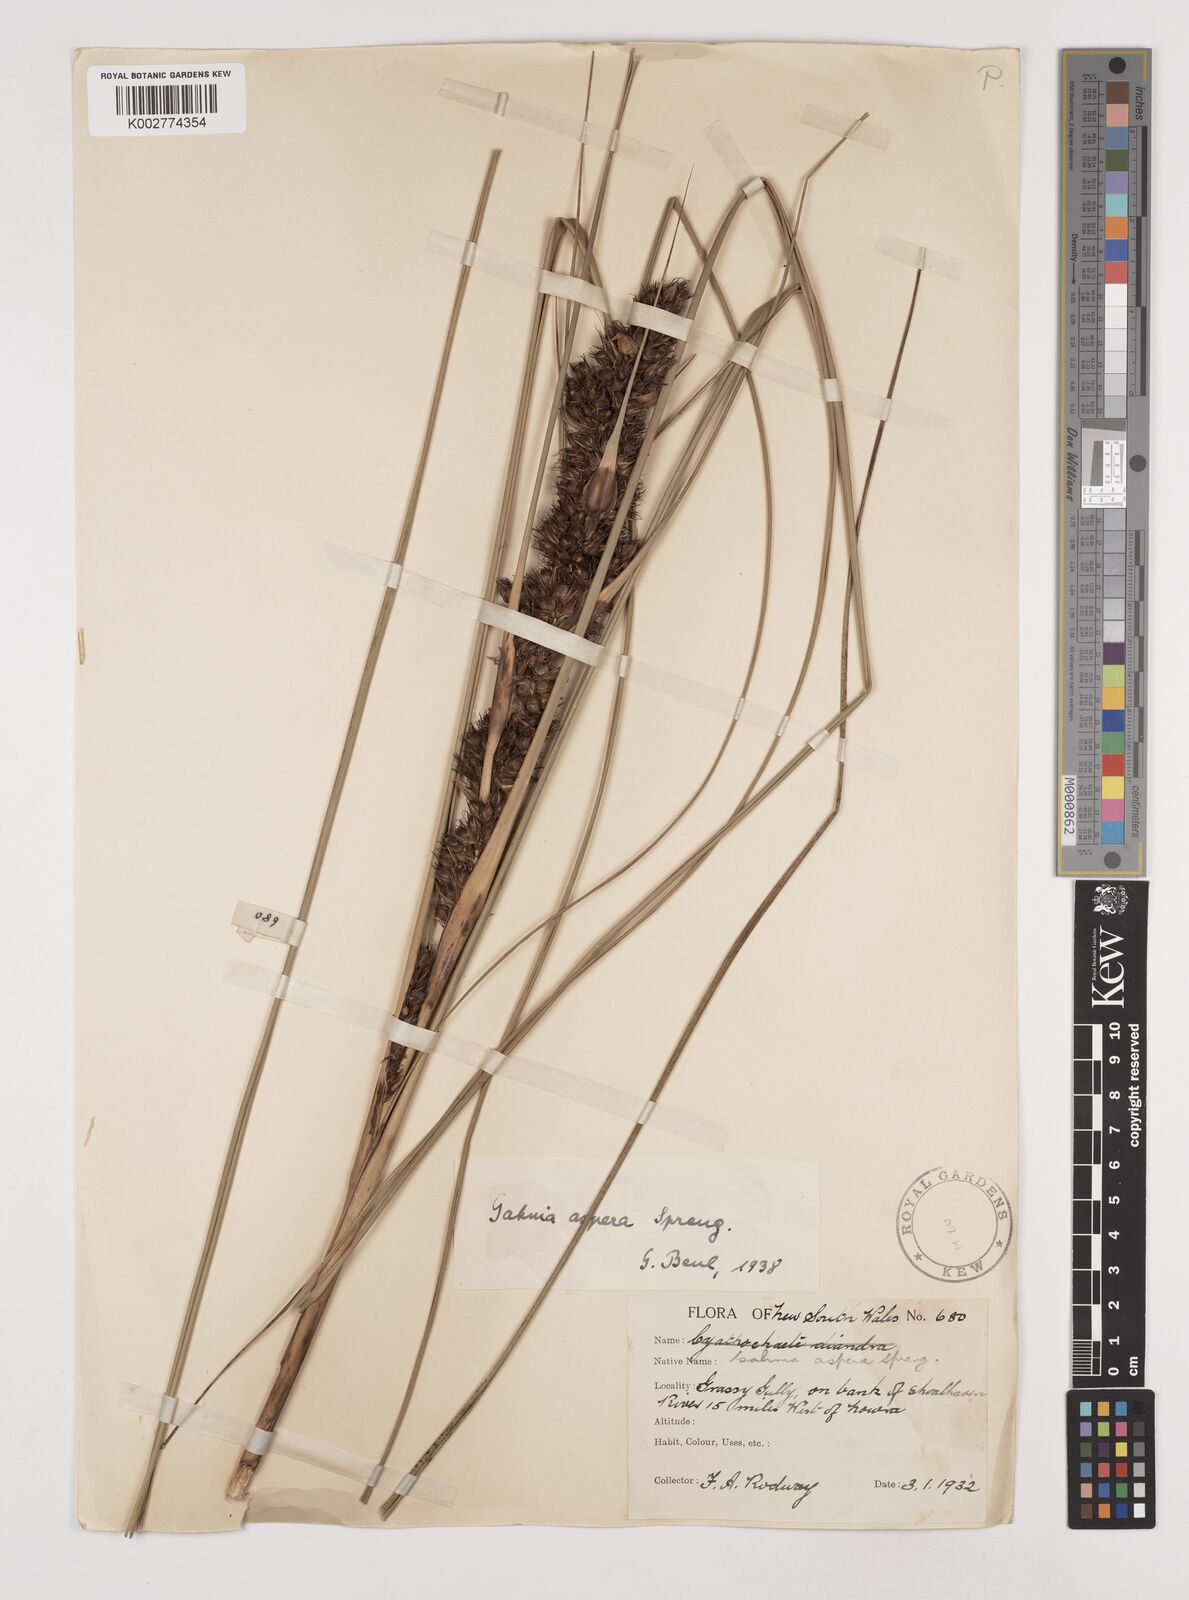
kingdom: Plantae
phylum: Tracheophyta
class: Liliopsida
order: Poales
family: Cyperaceae
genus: Gahnia
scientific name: Gahnia aspera
